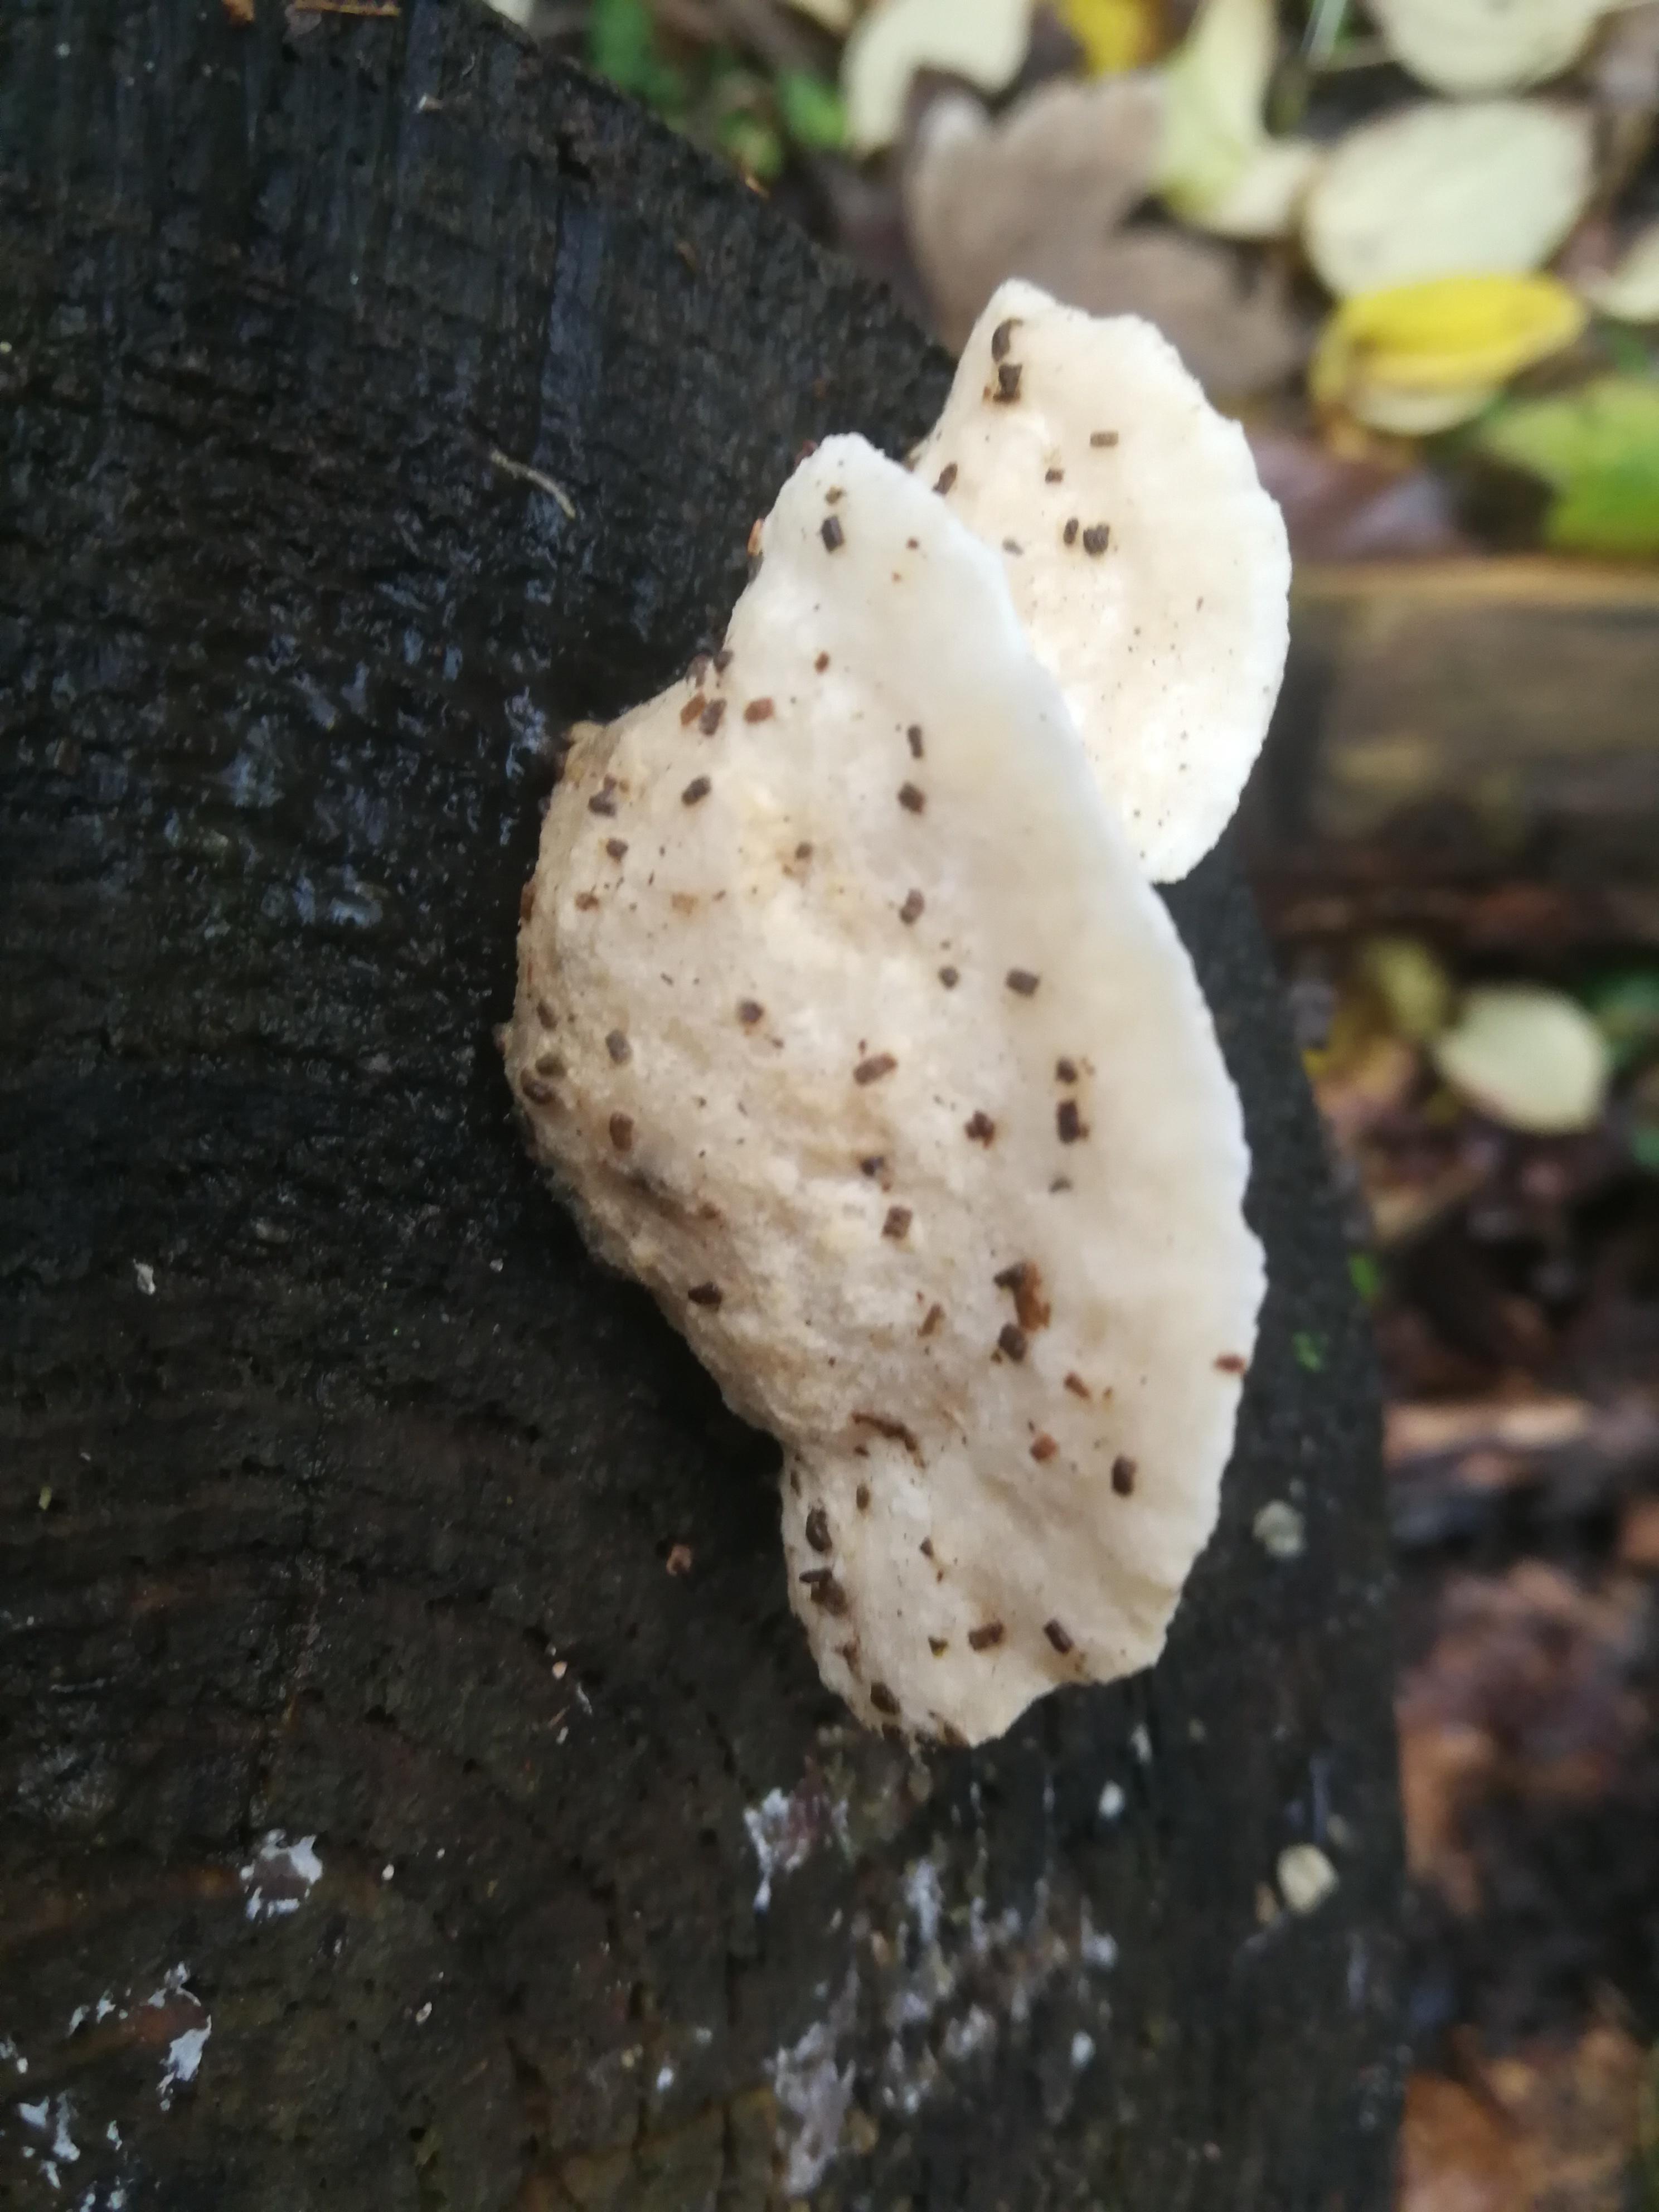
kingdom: Fungi
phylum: Basidiomycota
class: Agaricomycetes
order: Polyporales
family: Incrustoporiaceae
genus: Tyromyces
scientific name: Tyromyces lacteus
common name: mælkehvid kødporesvamp
